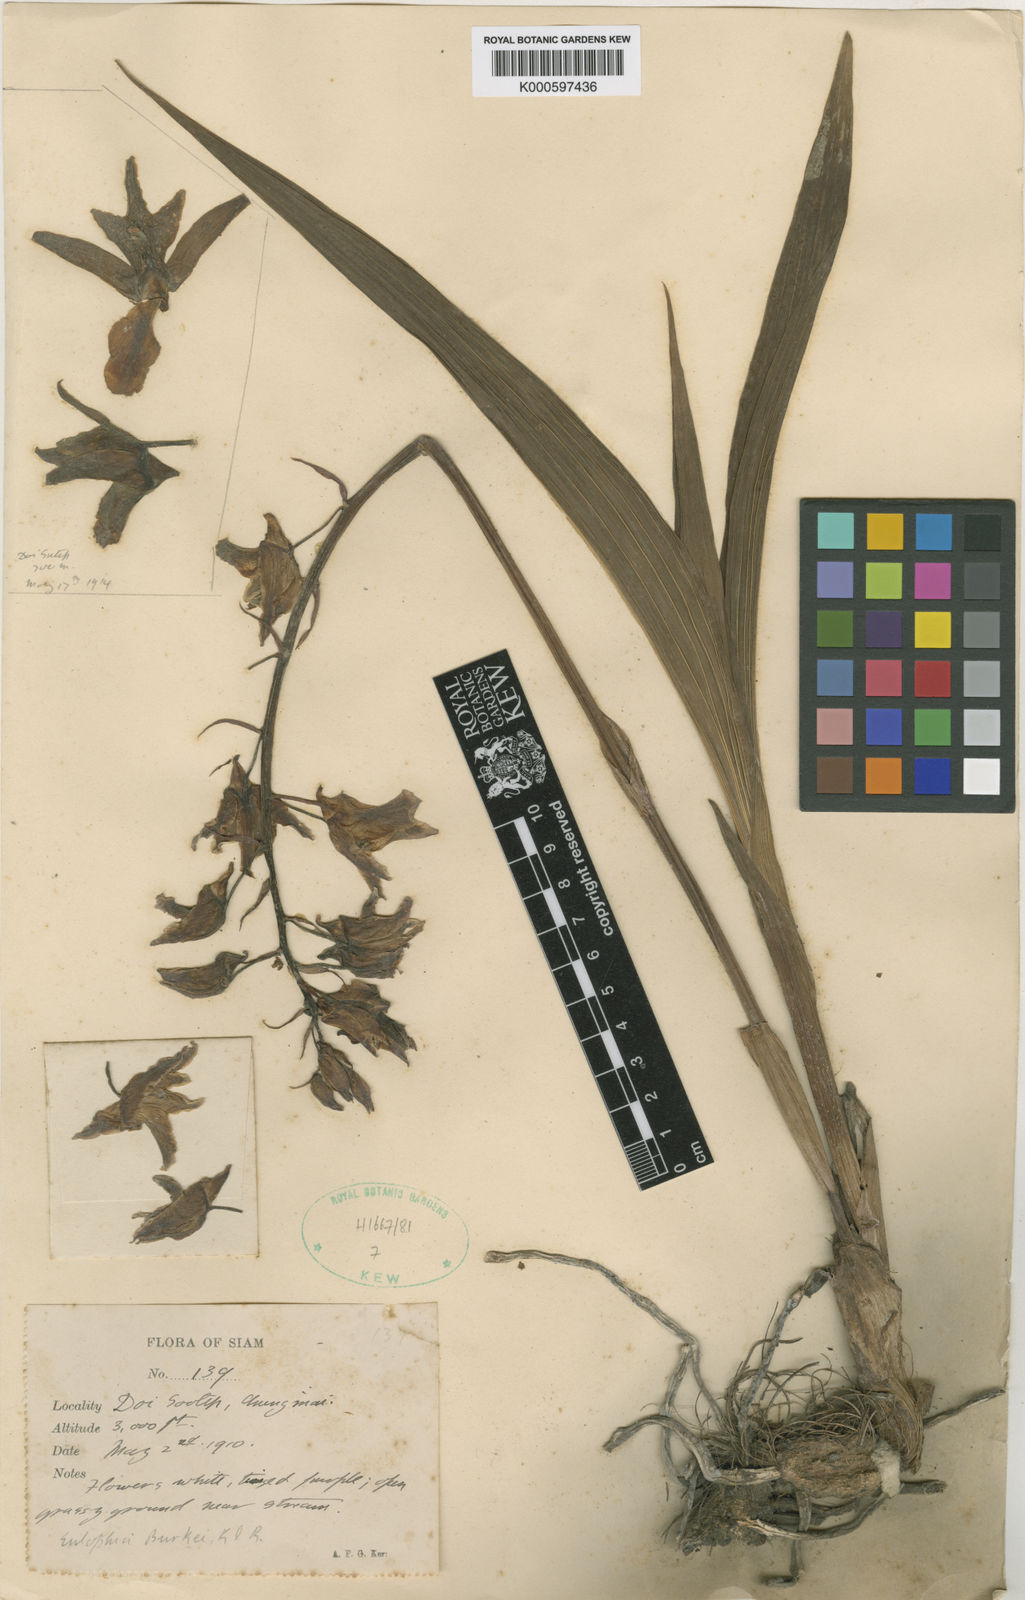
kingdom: Plantae
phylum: Tracheophyta
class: Liliopsida
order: Asparagales
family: Orchidaceae
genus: Eulophia
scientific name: Eulophia nuda
